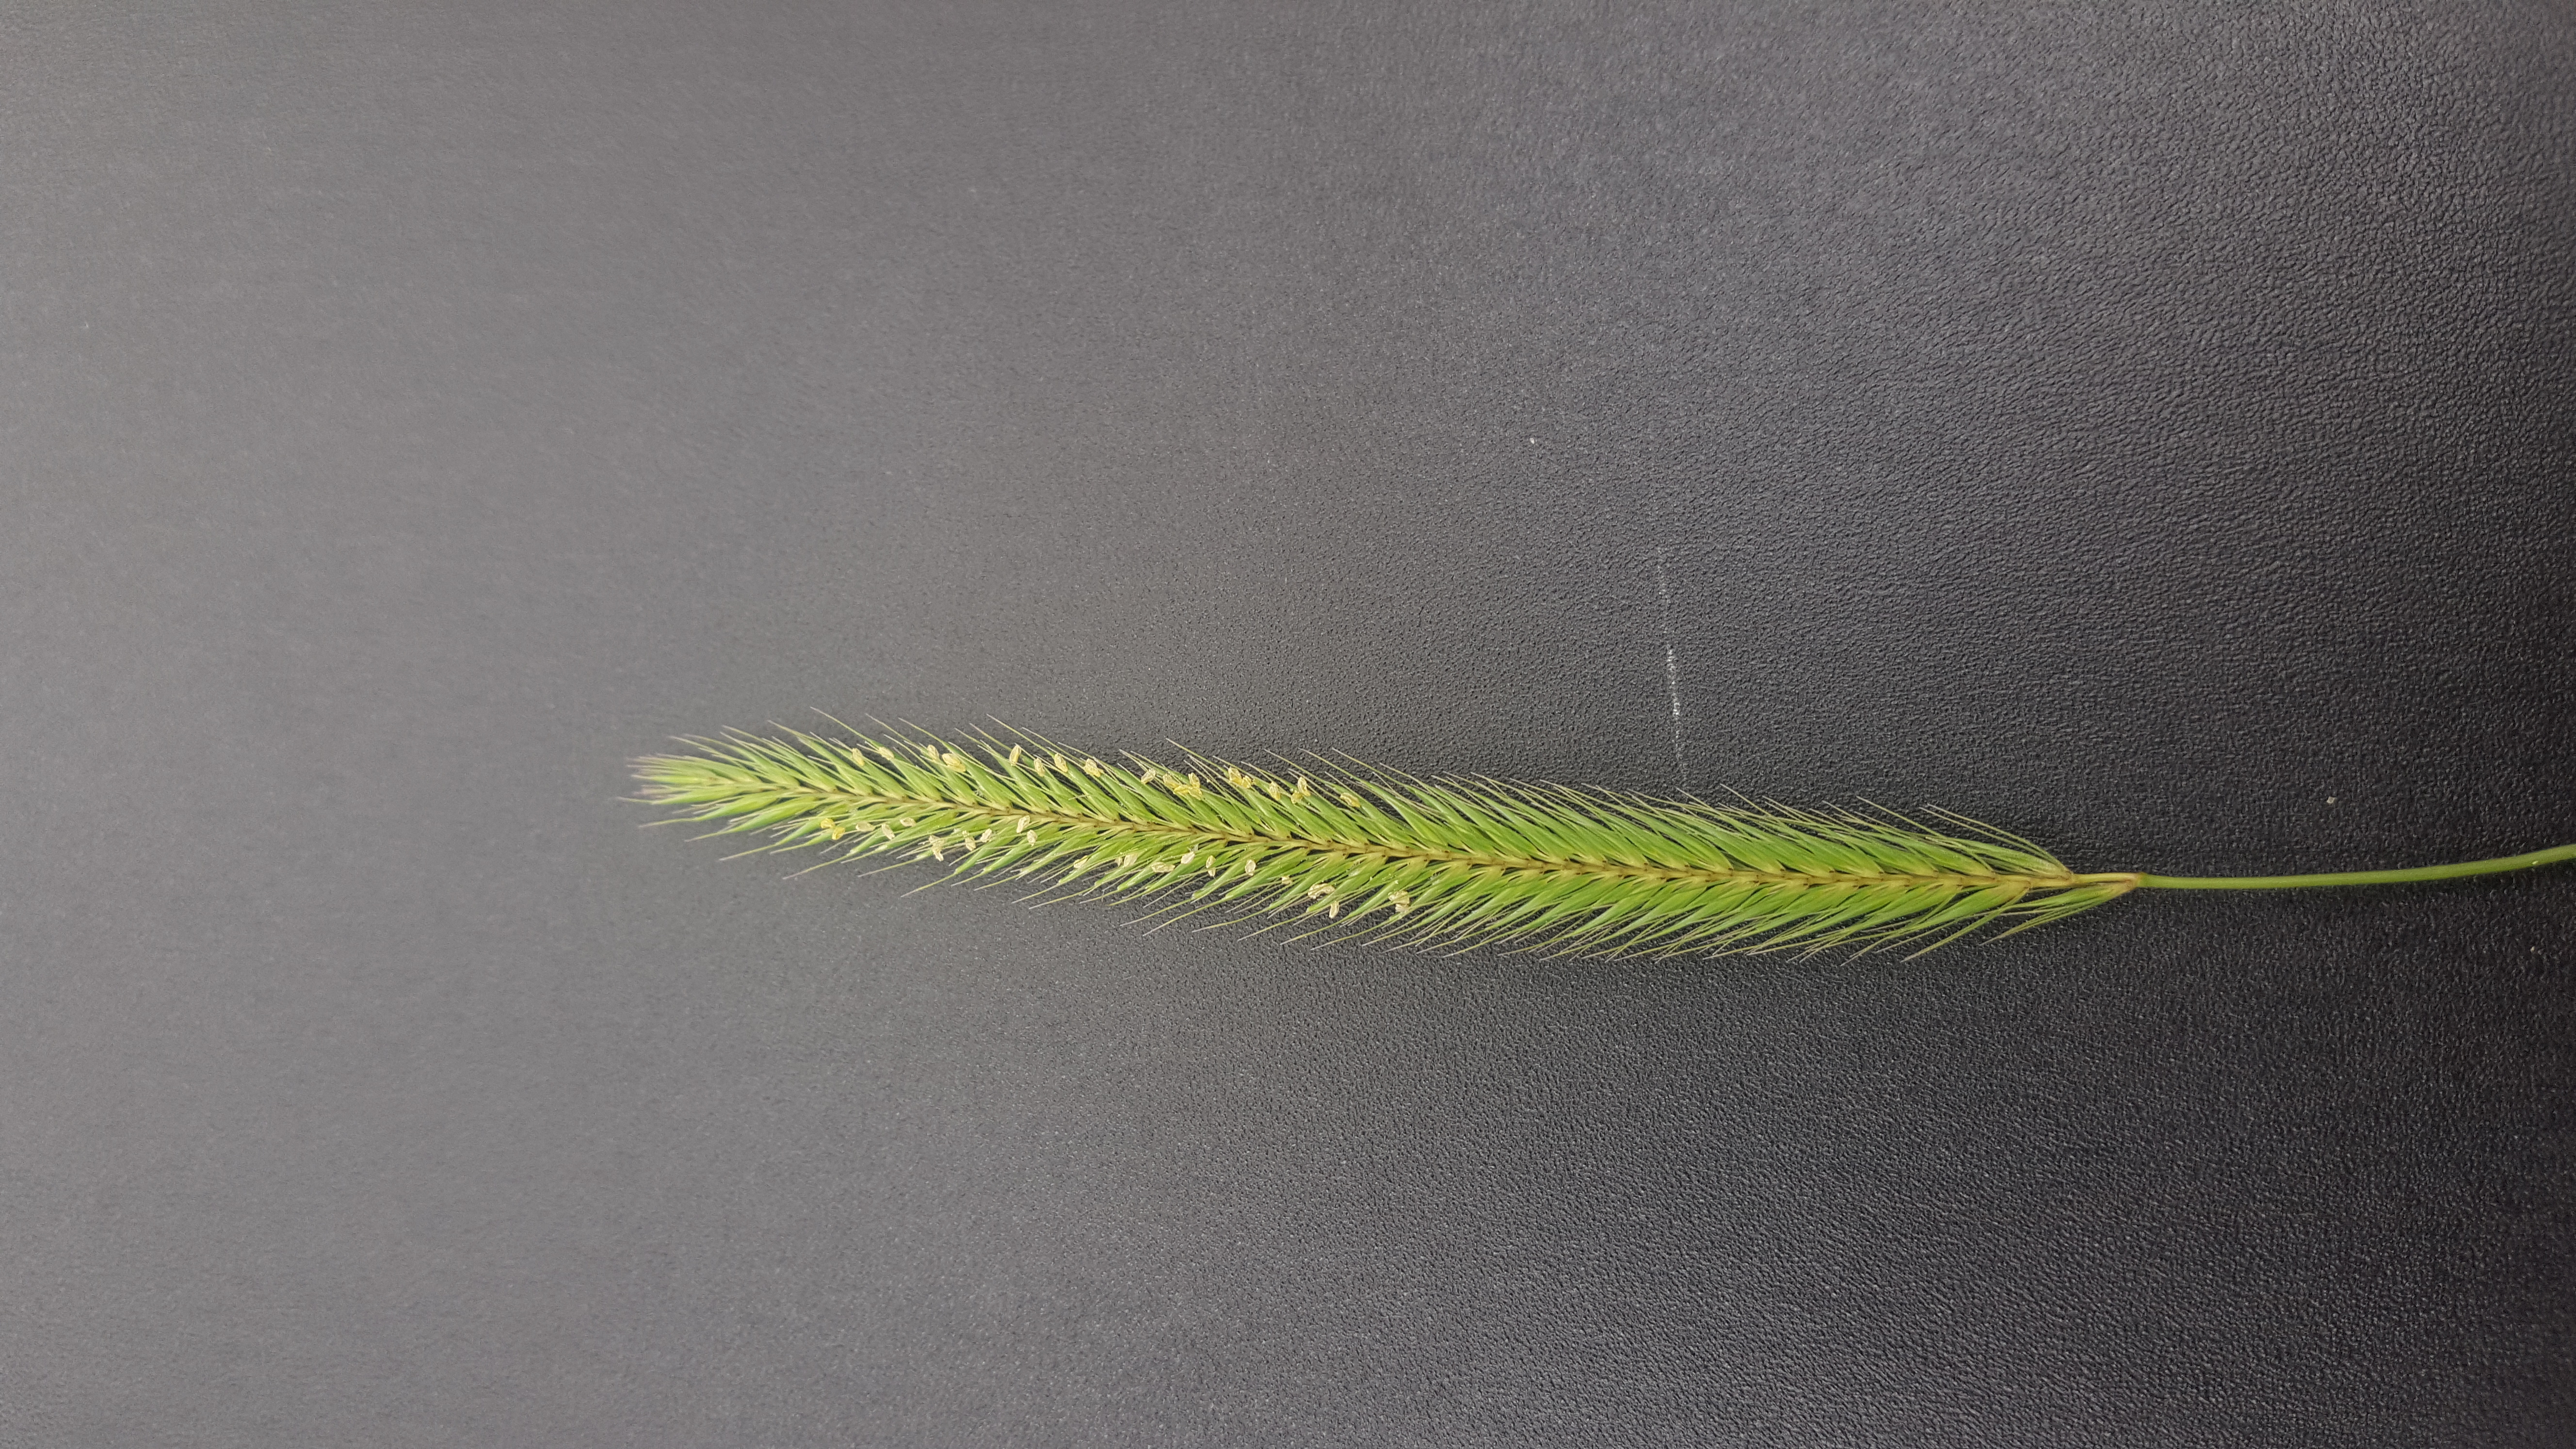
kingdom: Plantae
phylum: Tracheophyta
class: Liliopsida
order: Poales
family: Poaceae
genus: Hordeum
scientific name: Hordeum roshevitzii
